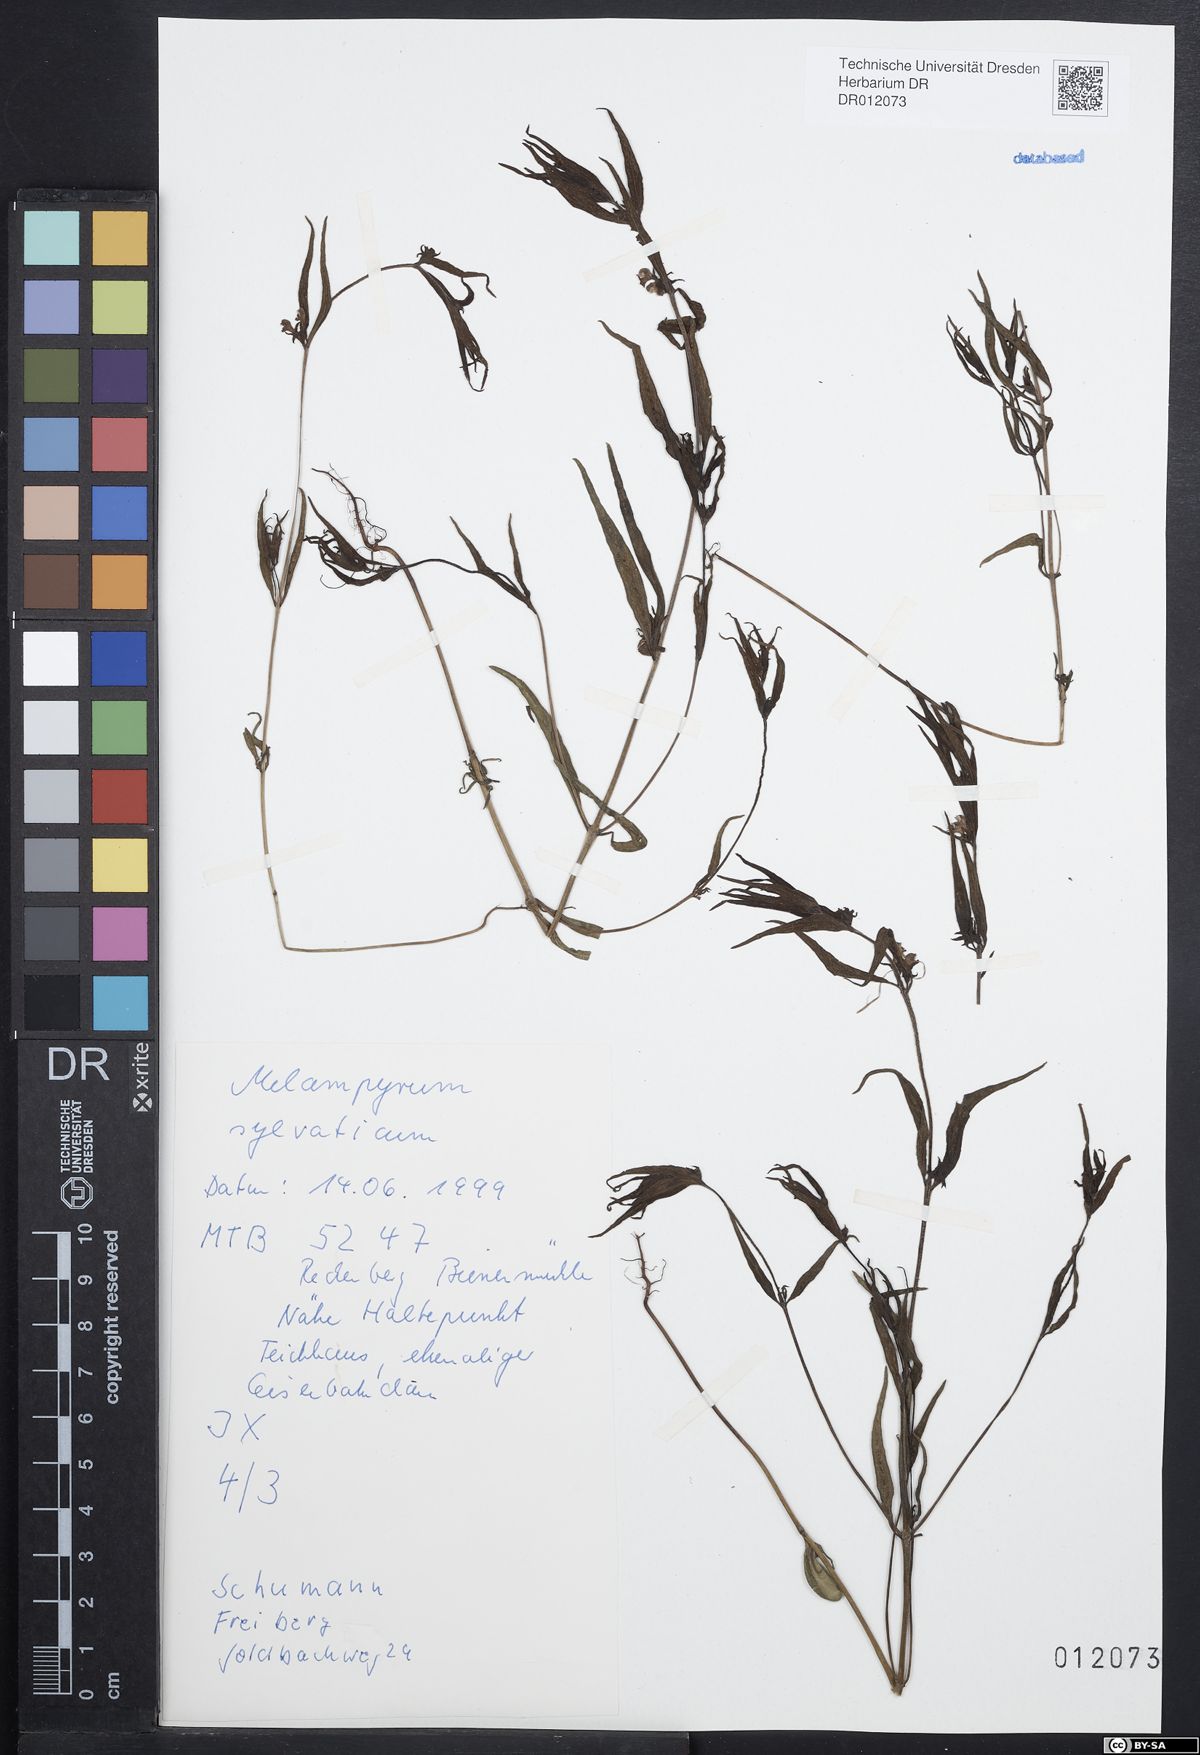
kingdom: Plantae
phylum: Tracheophyta
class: Magnoliopsida
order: Lamiales
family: Orobanchaceae
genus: Melampyrum
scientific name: Melampyrum sylvaticum
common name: Small cow-wheat
